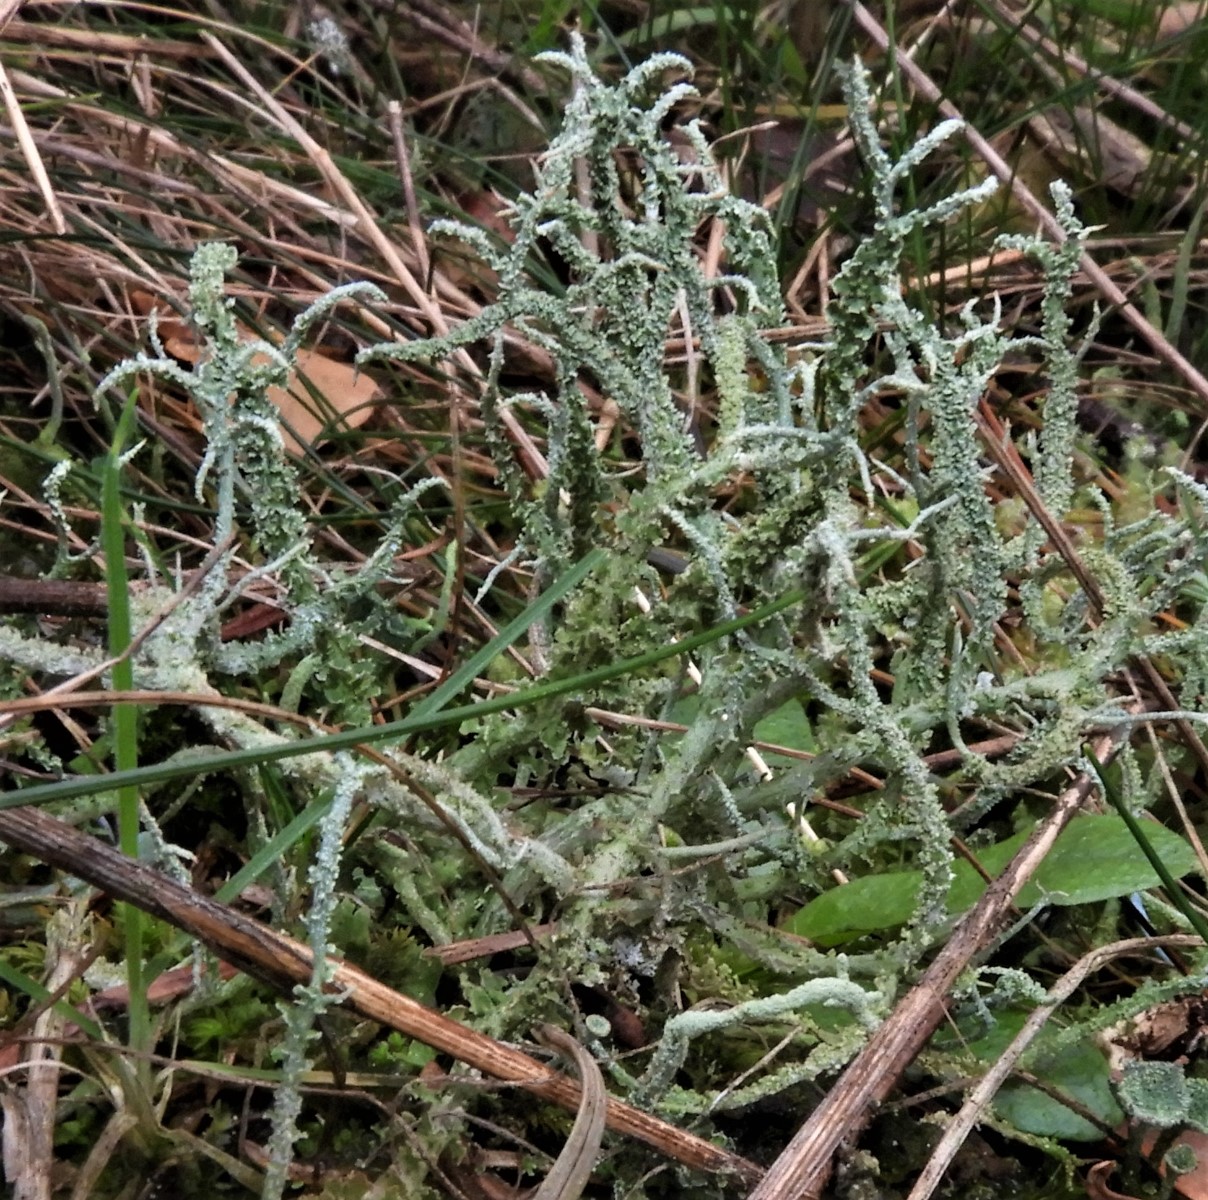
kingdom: Fungi
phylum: Ascomycota
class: Lecanoromycetes
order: Lecanorales
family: Cladoniaceae
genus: Cladonia
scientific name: Cladonia scabriuscula
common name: ru bægerlav
